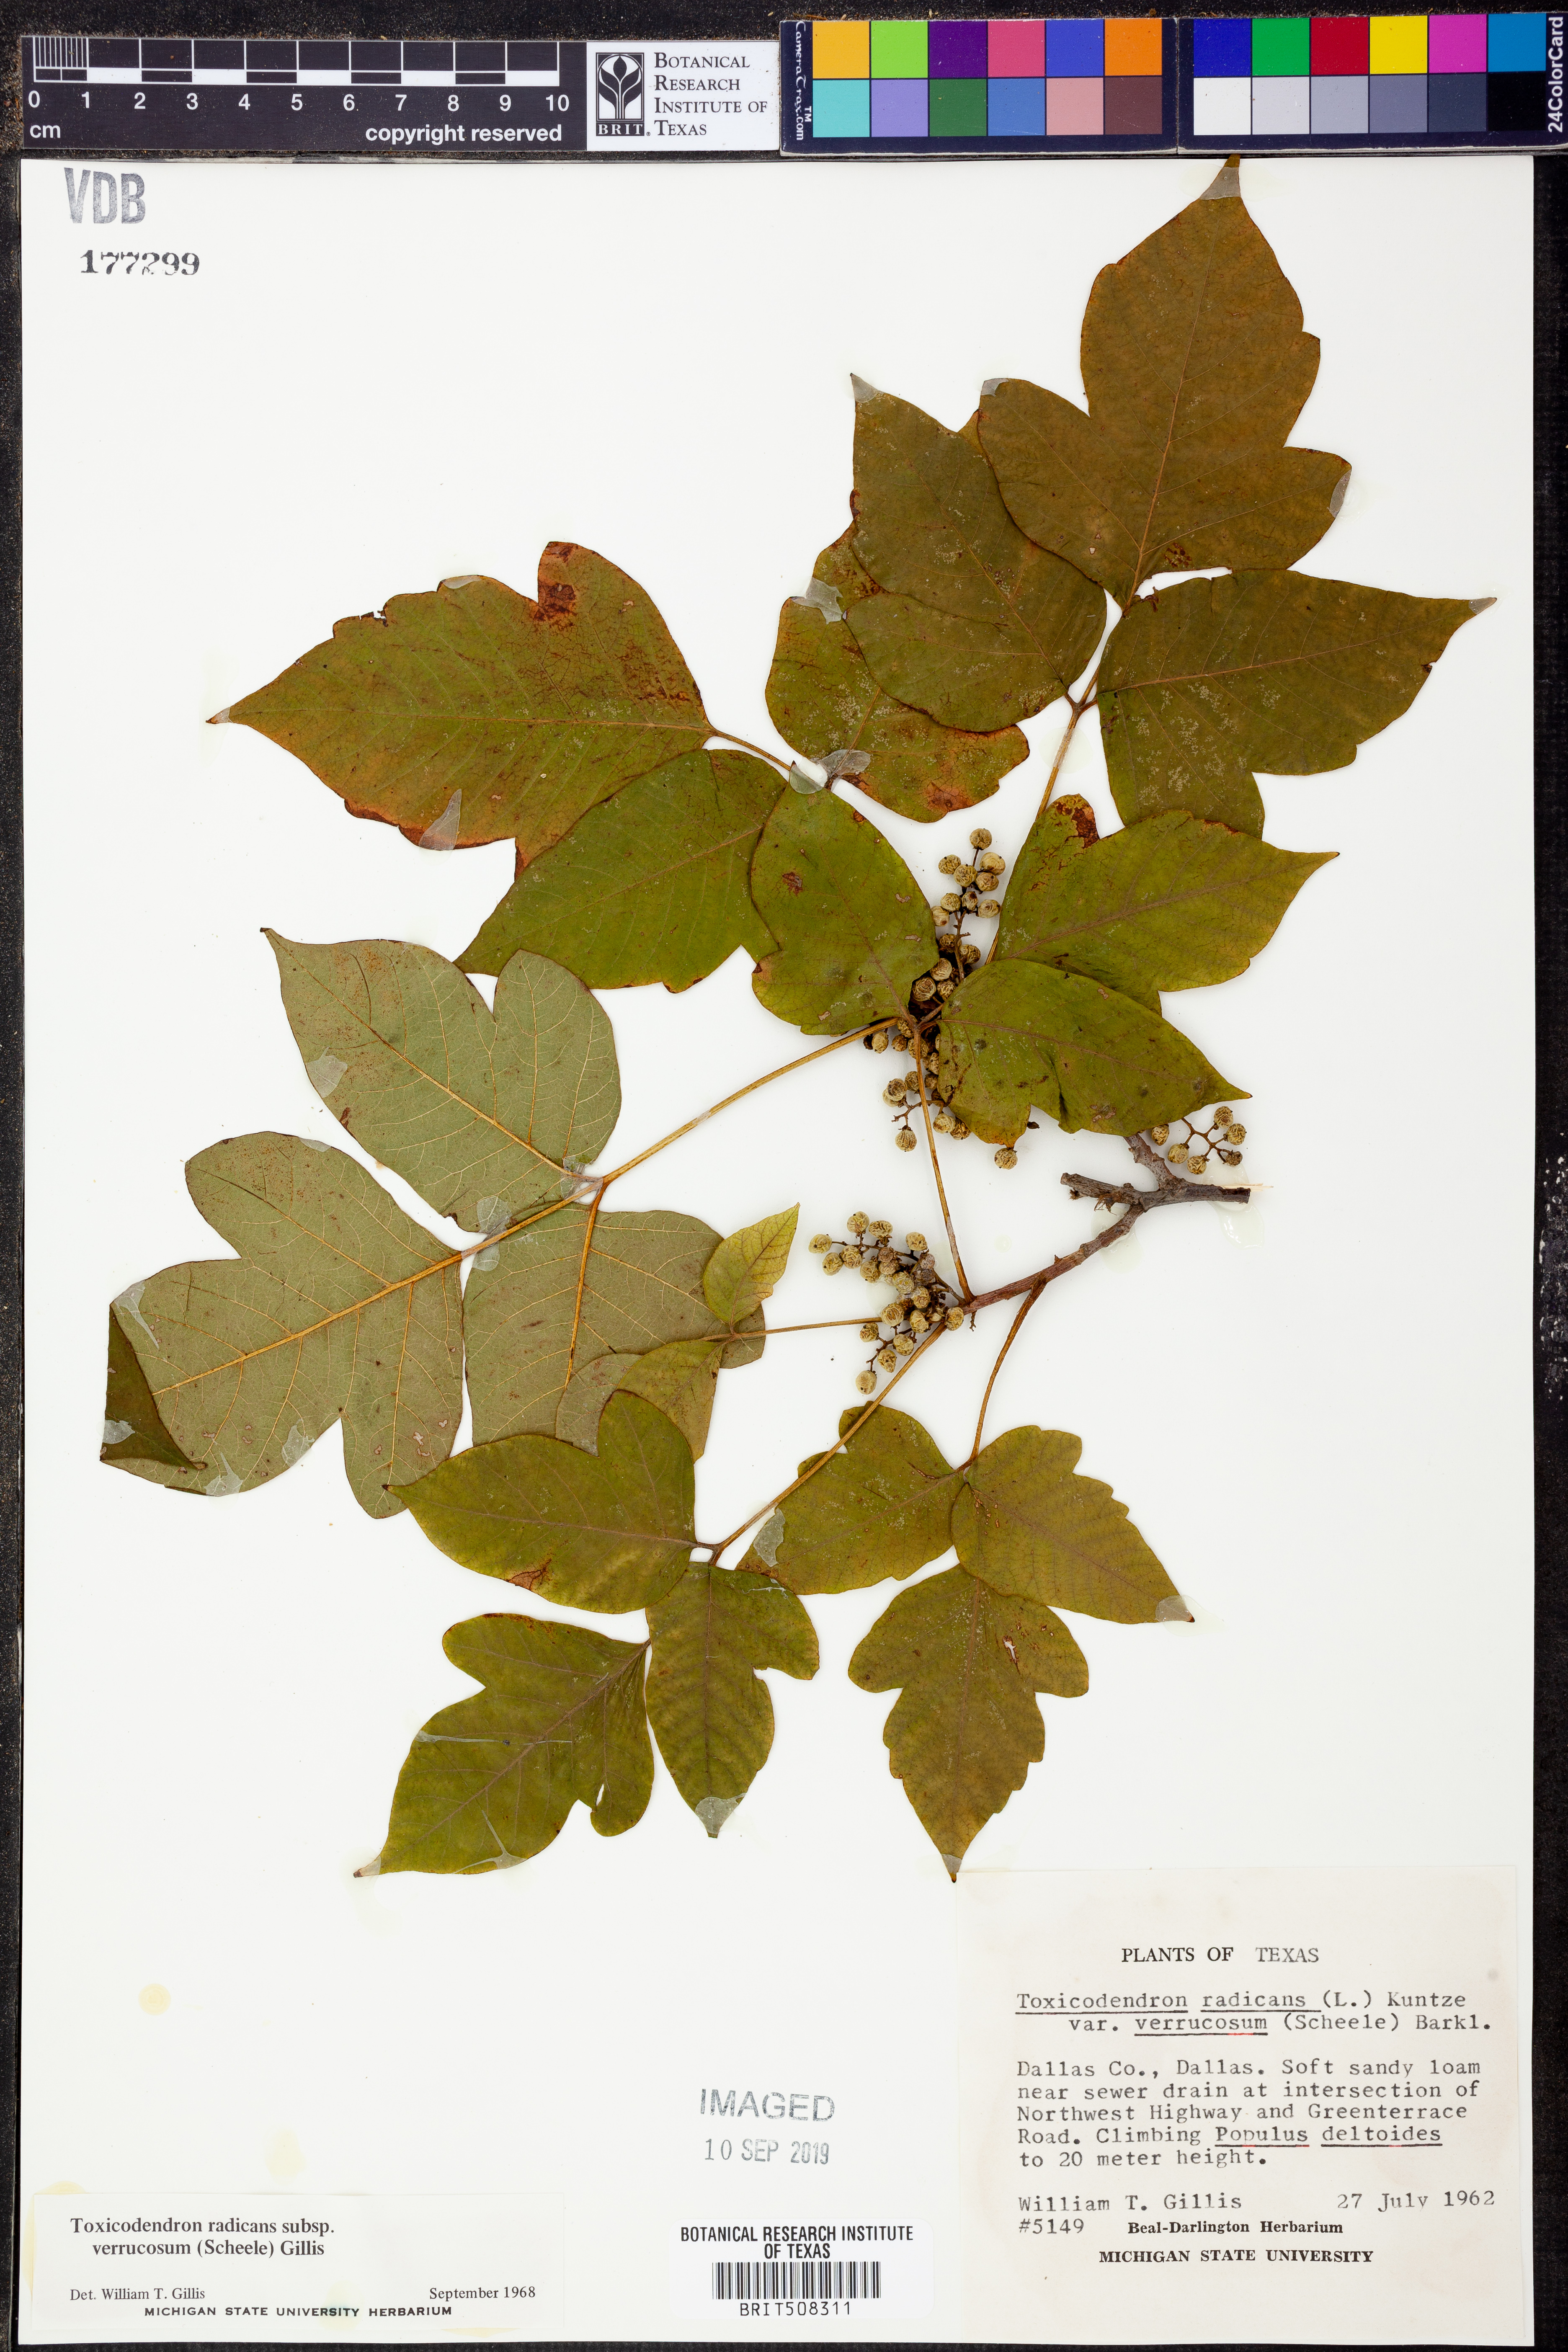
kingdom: Plantae
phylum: Tracheophyta
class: Magnoliopsida
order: Sapindales
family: Anacardiaceae
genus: Toxicodendron
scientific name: Toxicodendron radicans
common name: Poison ivy
